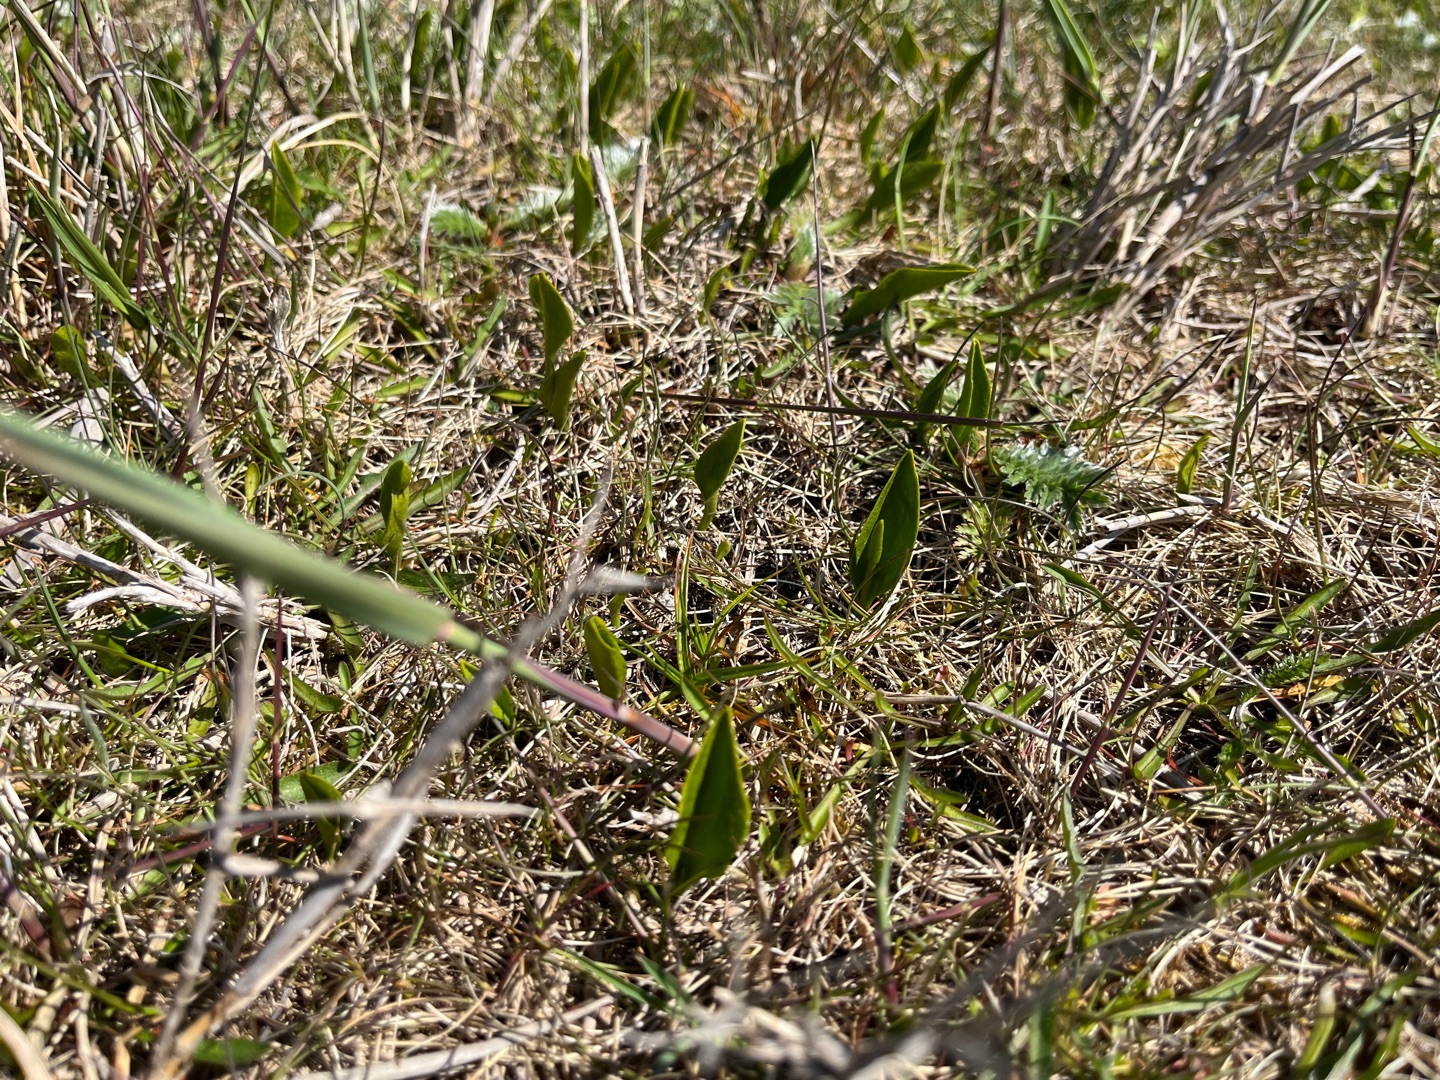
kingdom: Plantae
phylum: Tracheophyta
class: Polypodiopsida
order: Ophioglossales
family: Ophioglossaceae
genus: Ophioglossum
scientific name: Ophioglossum vulgatum
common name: Slangetunge
